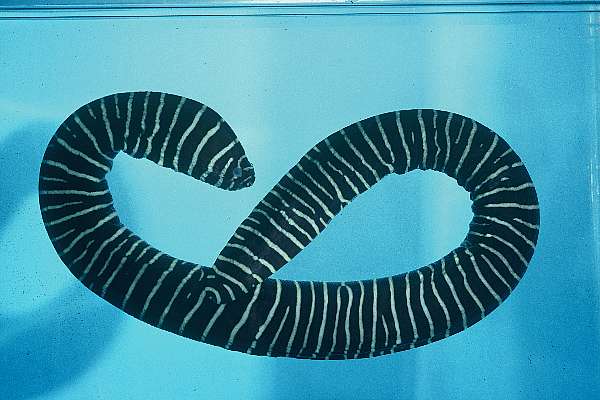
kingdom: Animalia
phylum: Chordata
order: Anguilliformes
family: Muraenidae
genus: Gymnomuraena
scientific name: Gymnomuraena zebra
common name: Zebra moray
